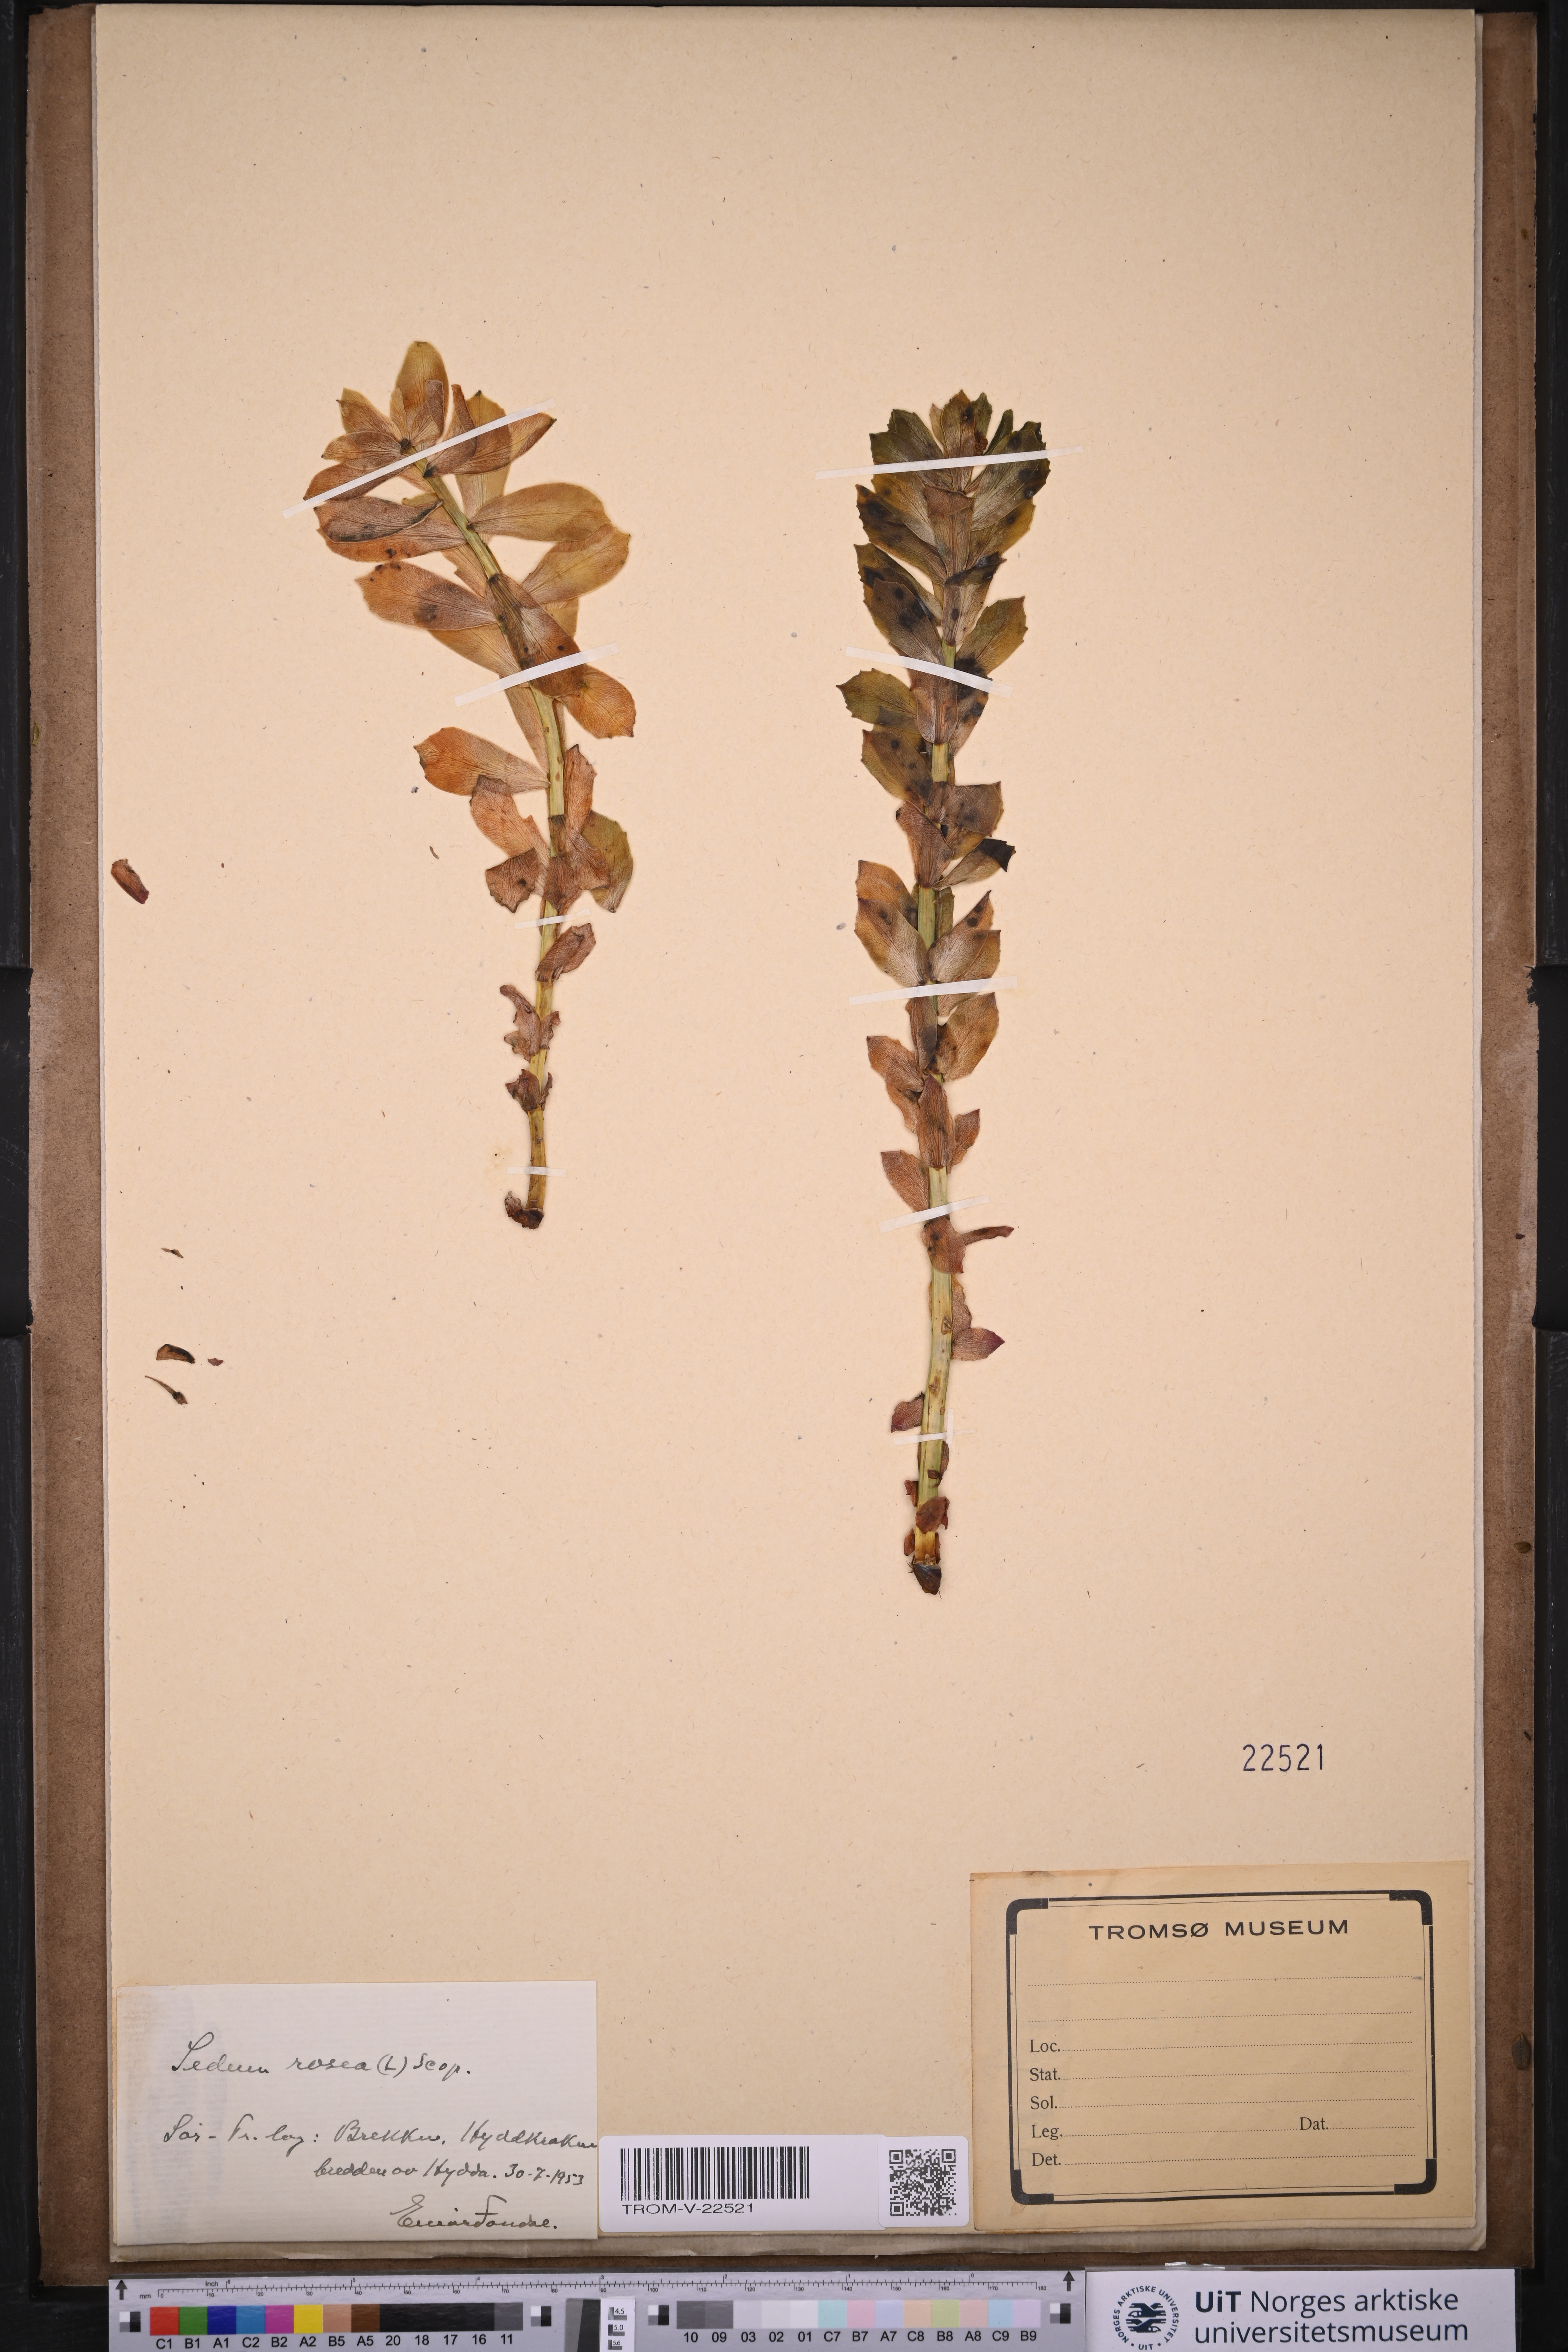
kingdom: Plantae
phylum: Tracheophyta
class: Magnoliopsida
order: Saxifragales
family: Crassulaceae
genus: Rhodiola
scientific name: Rhodiola rosea
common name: Roseroot
